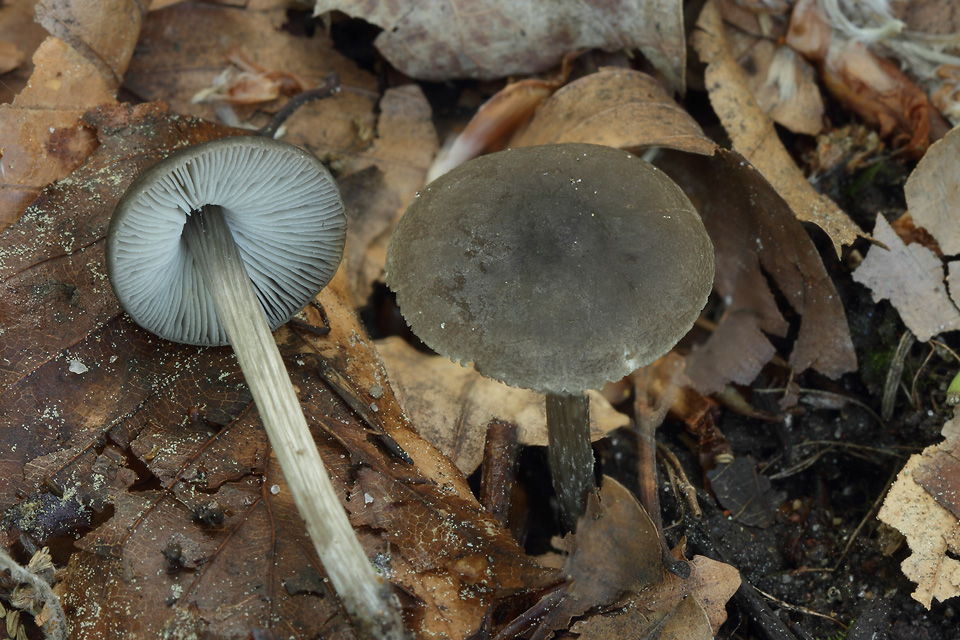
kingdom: Fungi
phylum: Basidiomycota
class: Agaricomycetes
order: Agaricales
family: Pluteaceae
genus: Pluteus
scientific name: Pluteus
